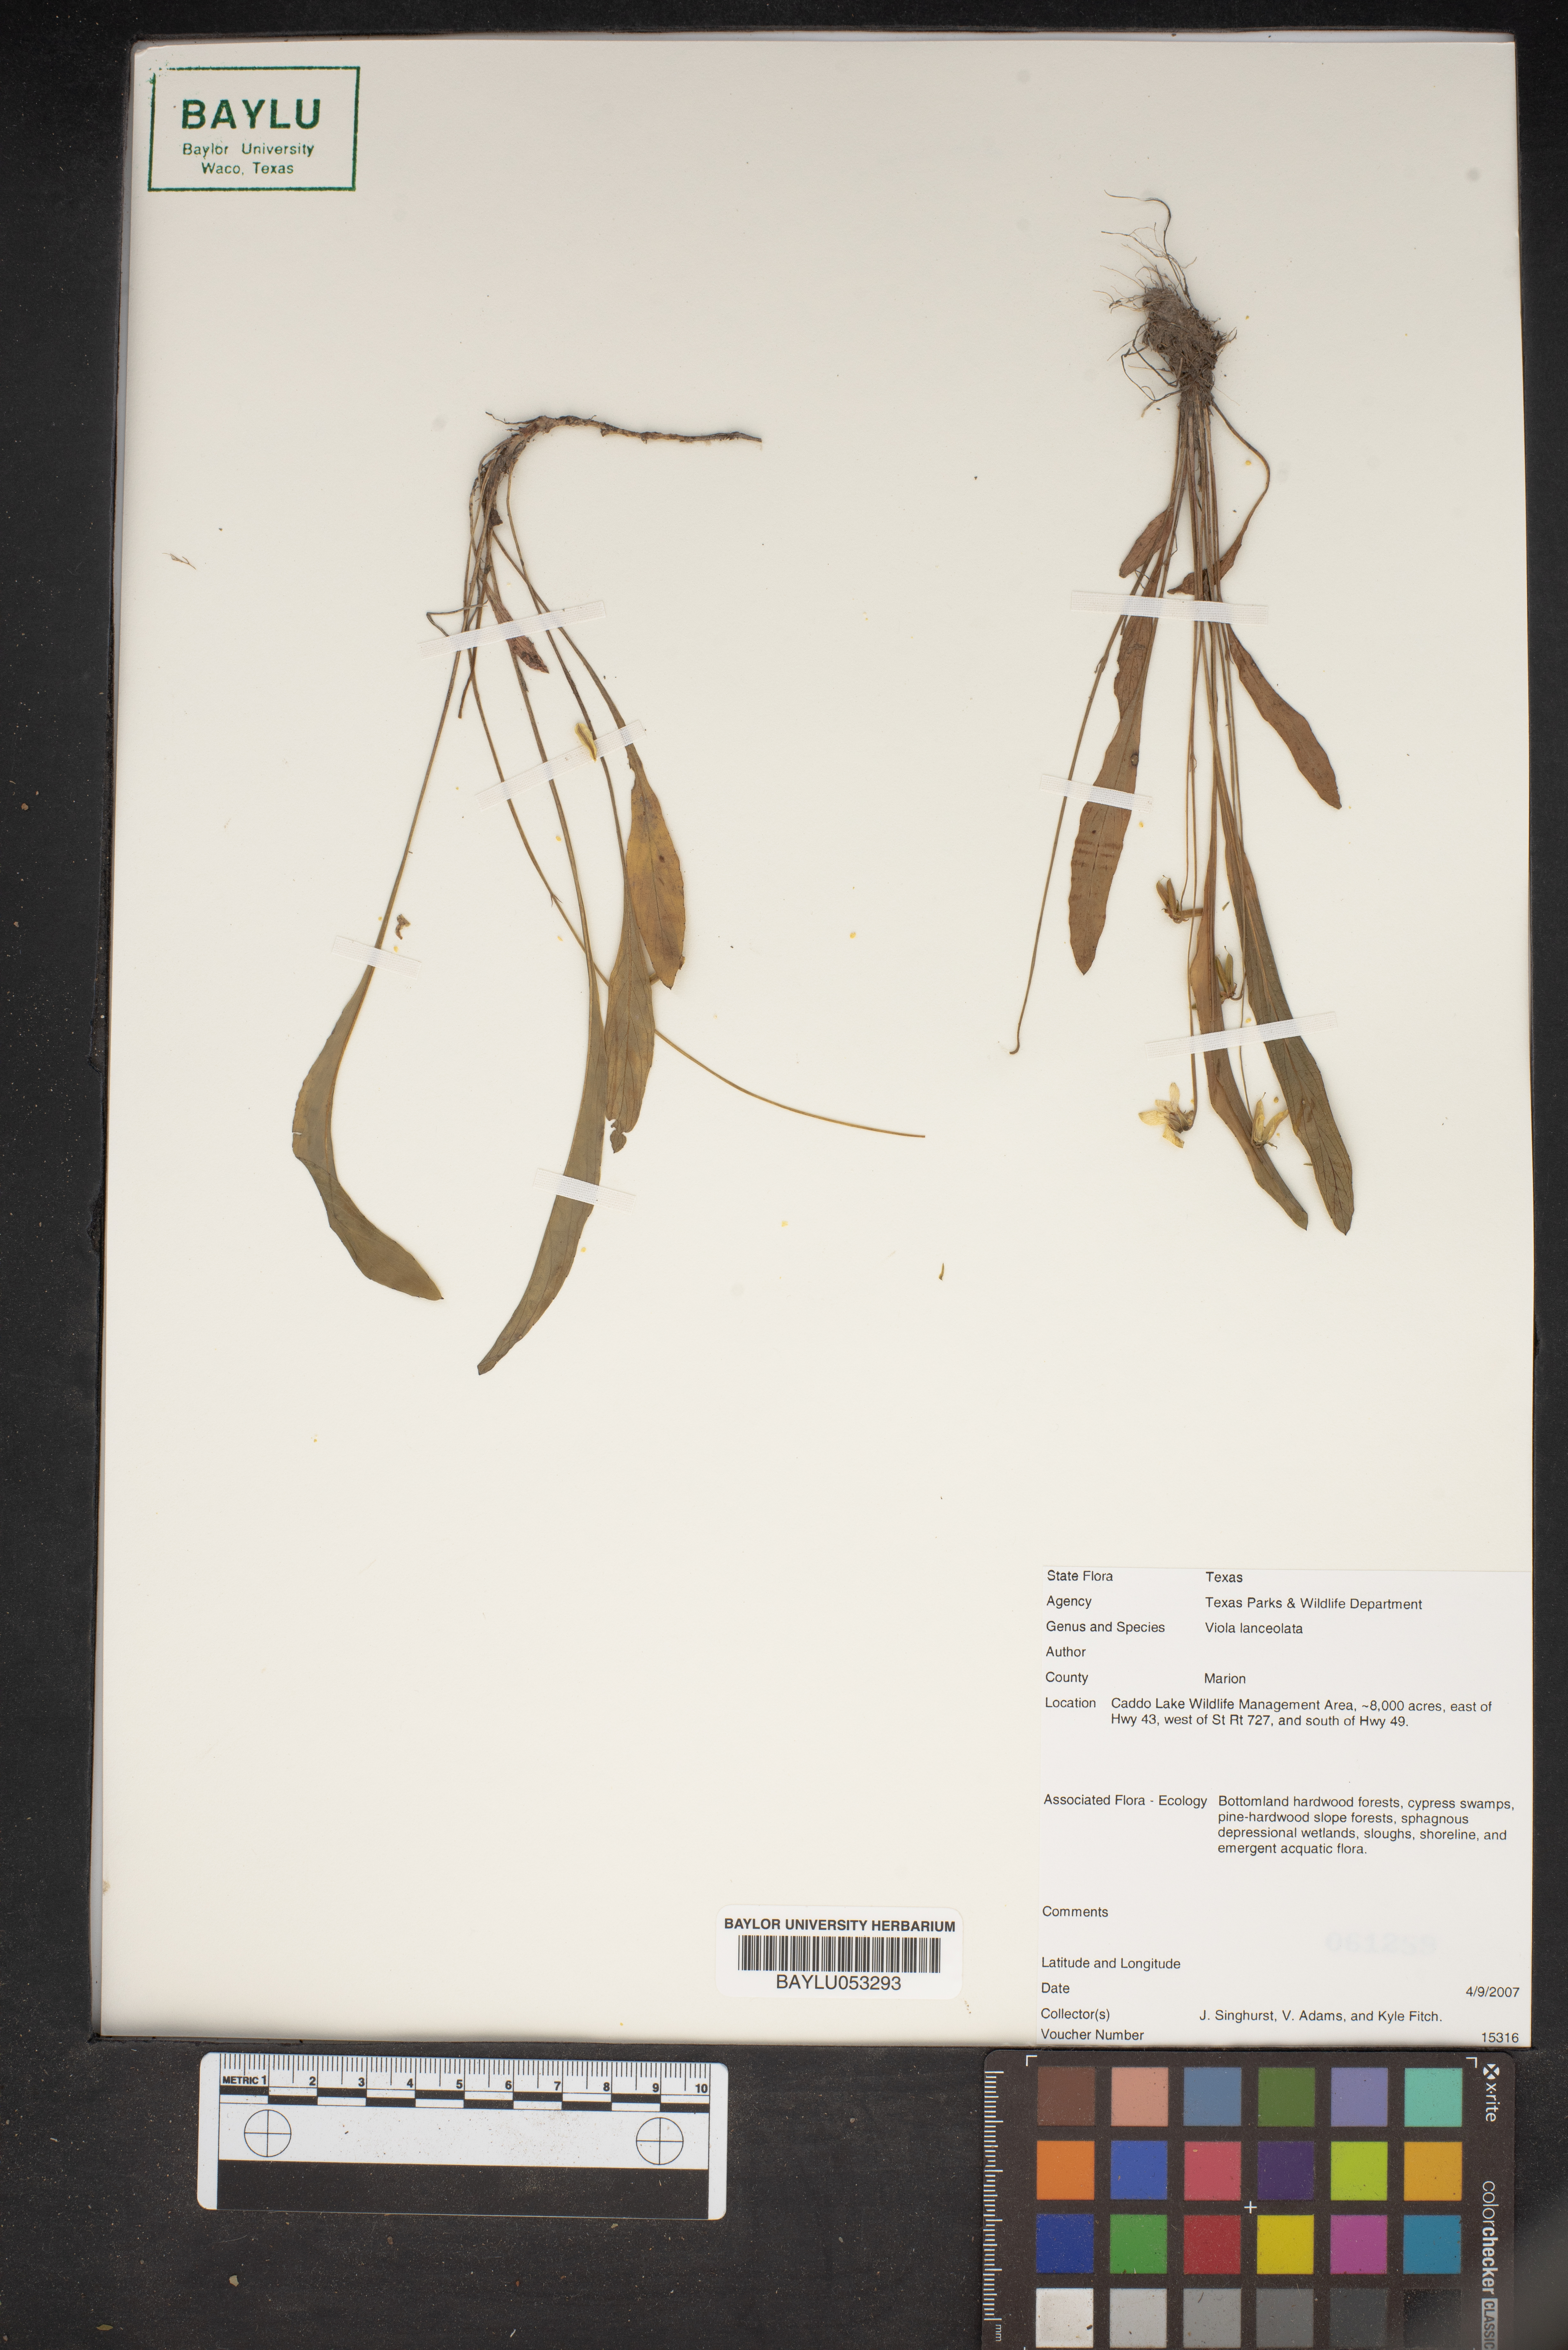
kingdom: Plantae
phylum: Tracheophyta
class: Magnoliopsida
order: Malpighiales
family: Violaceae
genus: Viola
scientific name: Viola lanceolata
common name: Bog white violet
